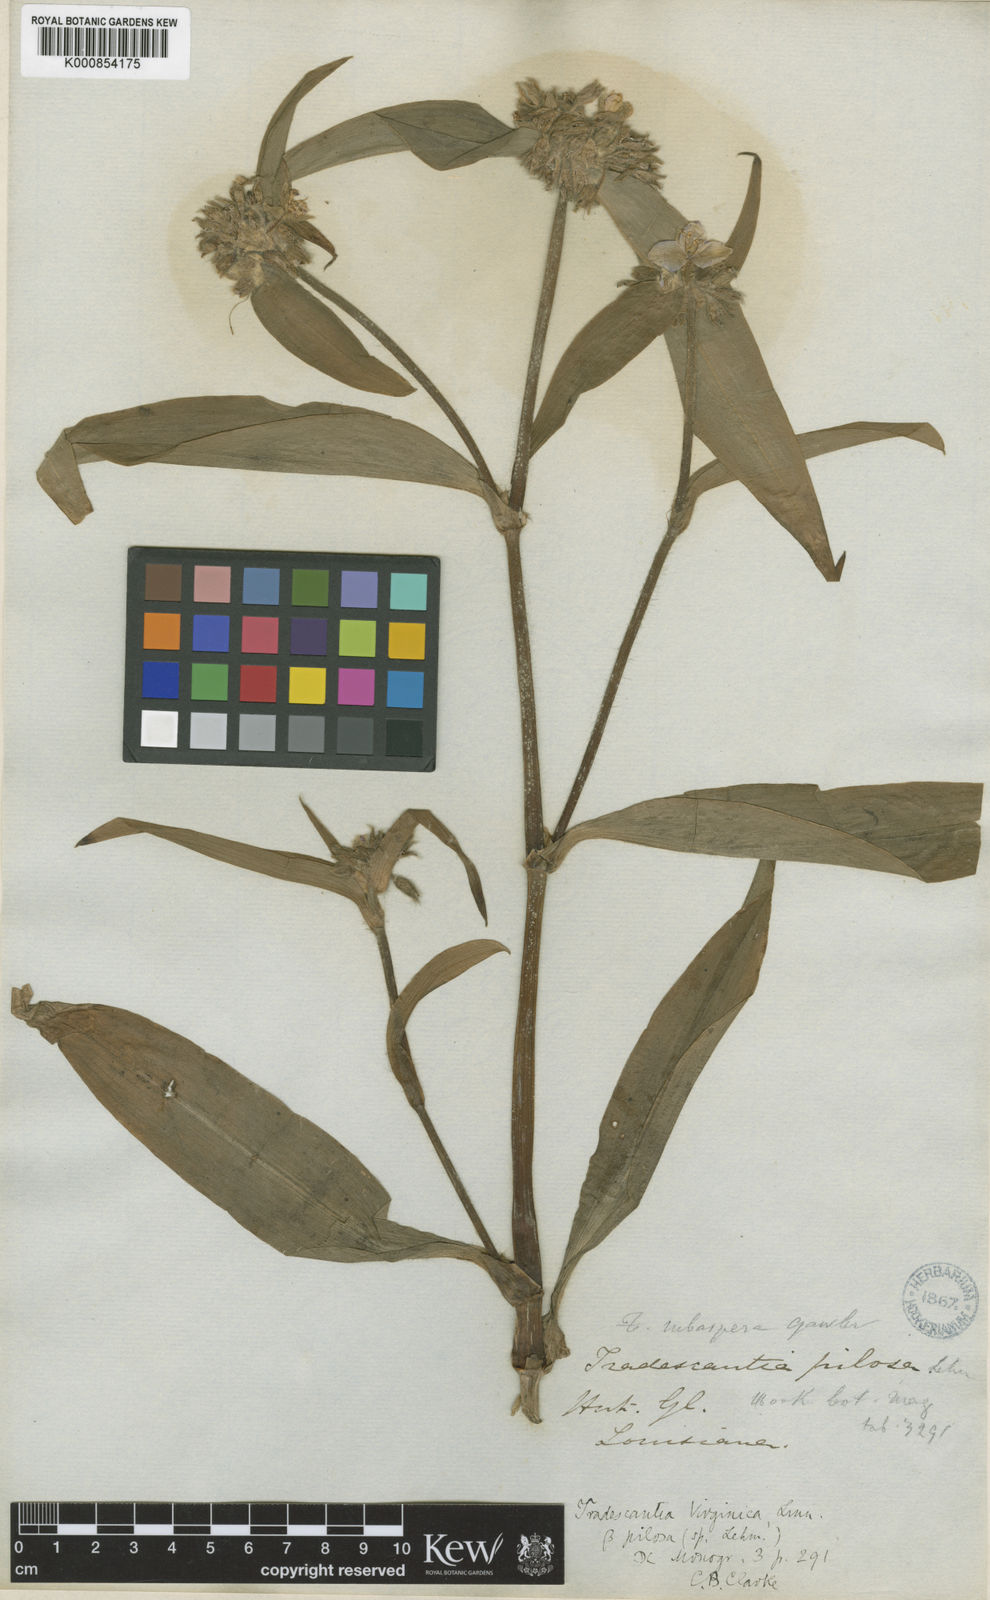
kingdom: Plantae
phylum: Tracheophyta
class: Liliopsida
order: Commelinales
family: Commelinaceae
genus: Tradescantia
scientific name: Tradescantia subaspera
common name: Wide-leaf spiderwort
